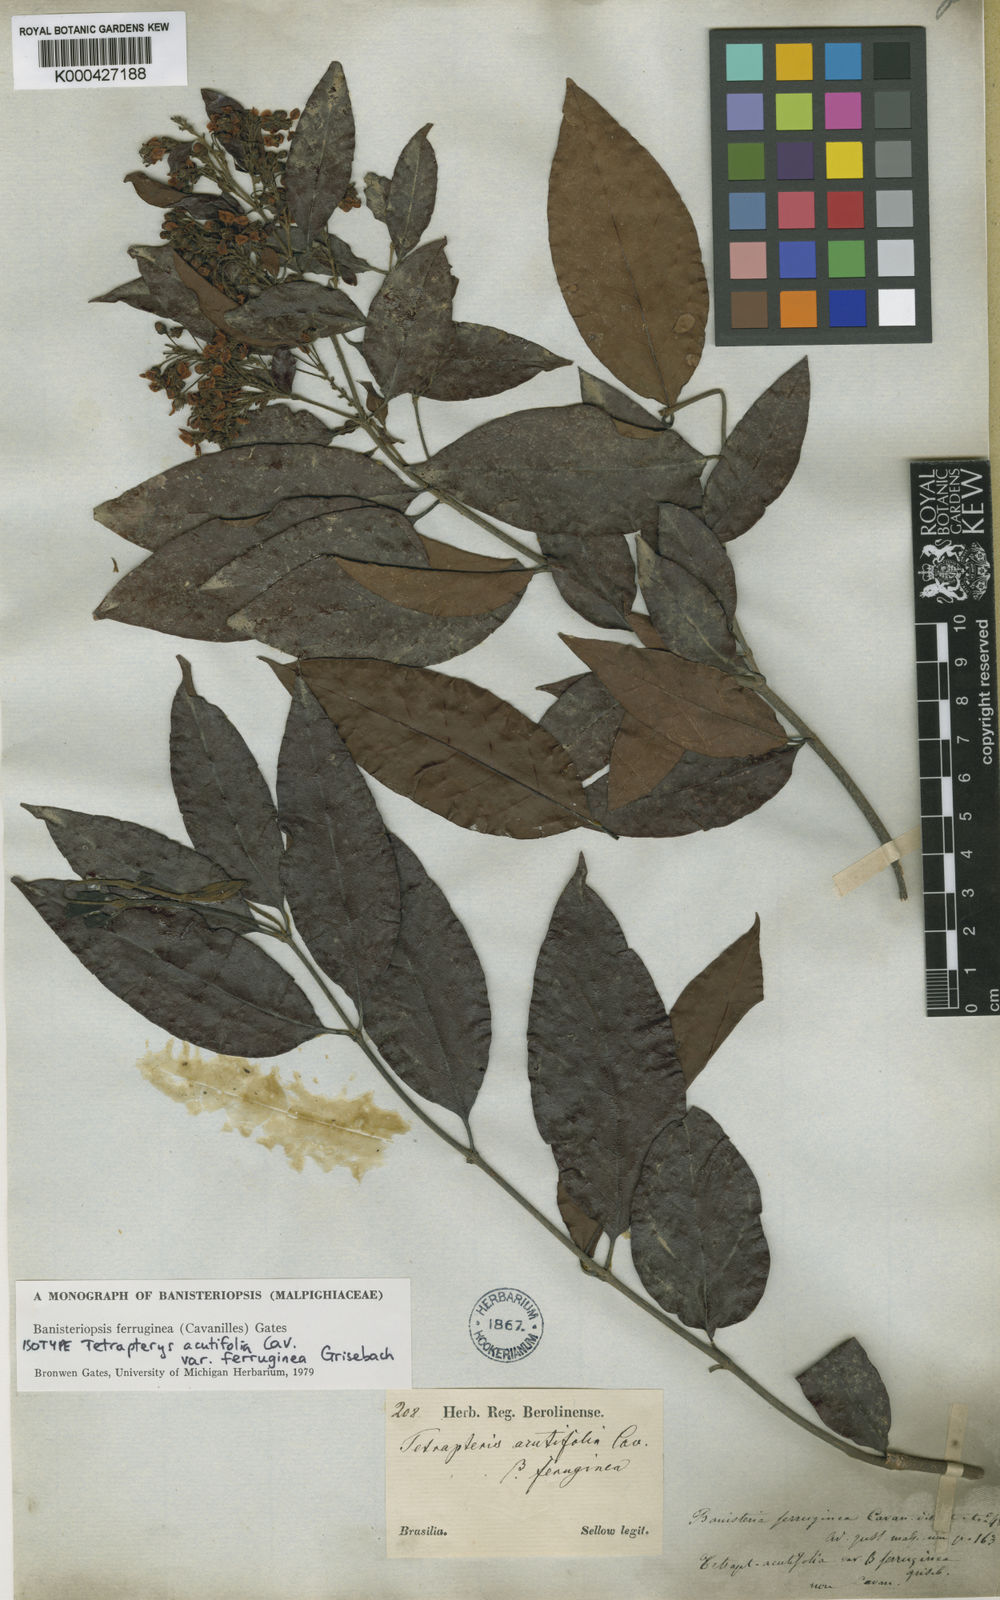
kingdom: Plantae
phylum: Tracheophyta
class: Magnoliopsida
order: Malpighiales
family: Malpighiaceae
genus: Bronwenia
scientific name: Bronwenia ferruginea
